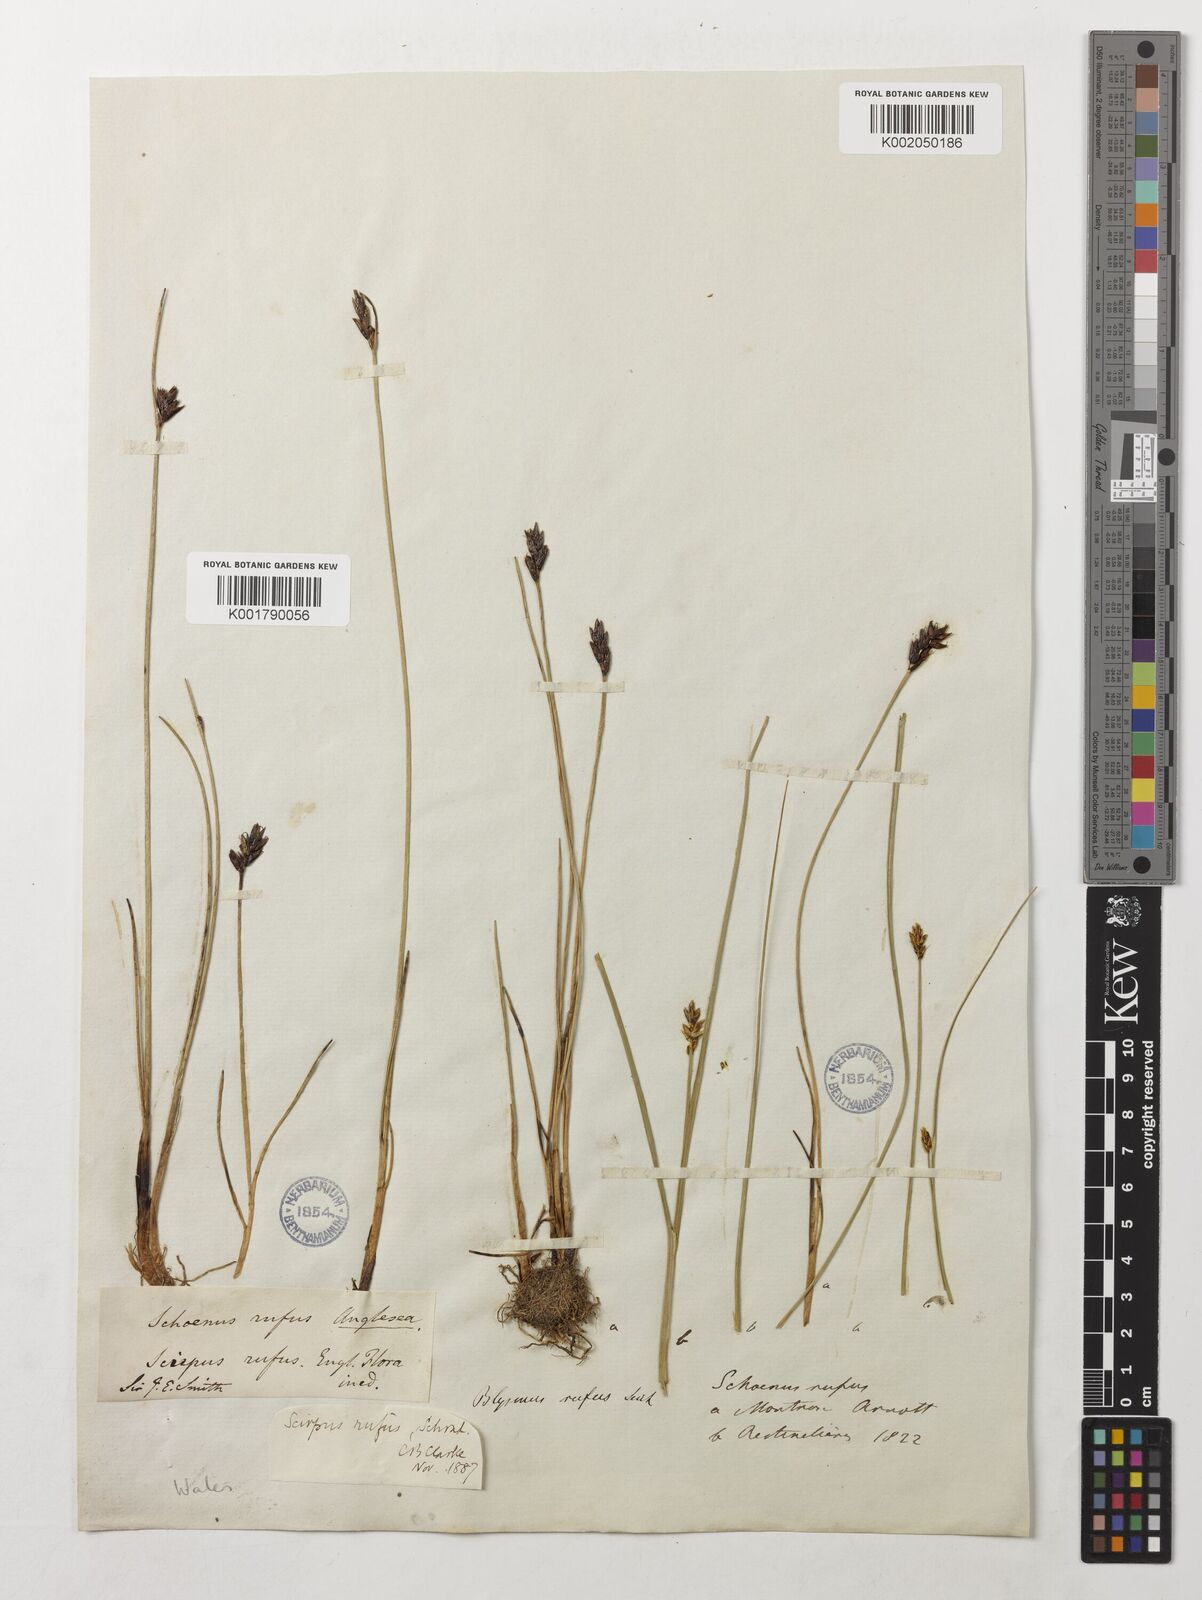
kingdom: Plantae
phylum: Tracheophyta
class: Liliopsida
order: Poales
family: Cyperaceae
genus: Blysmus
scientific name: Blysmus rufus
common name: Saltmarsh flat-sedge
